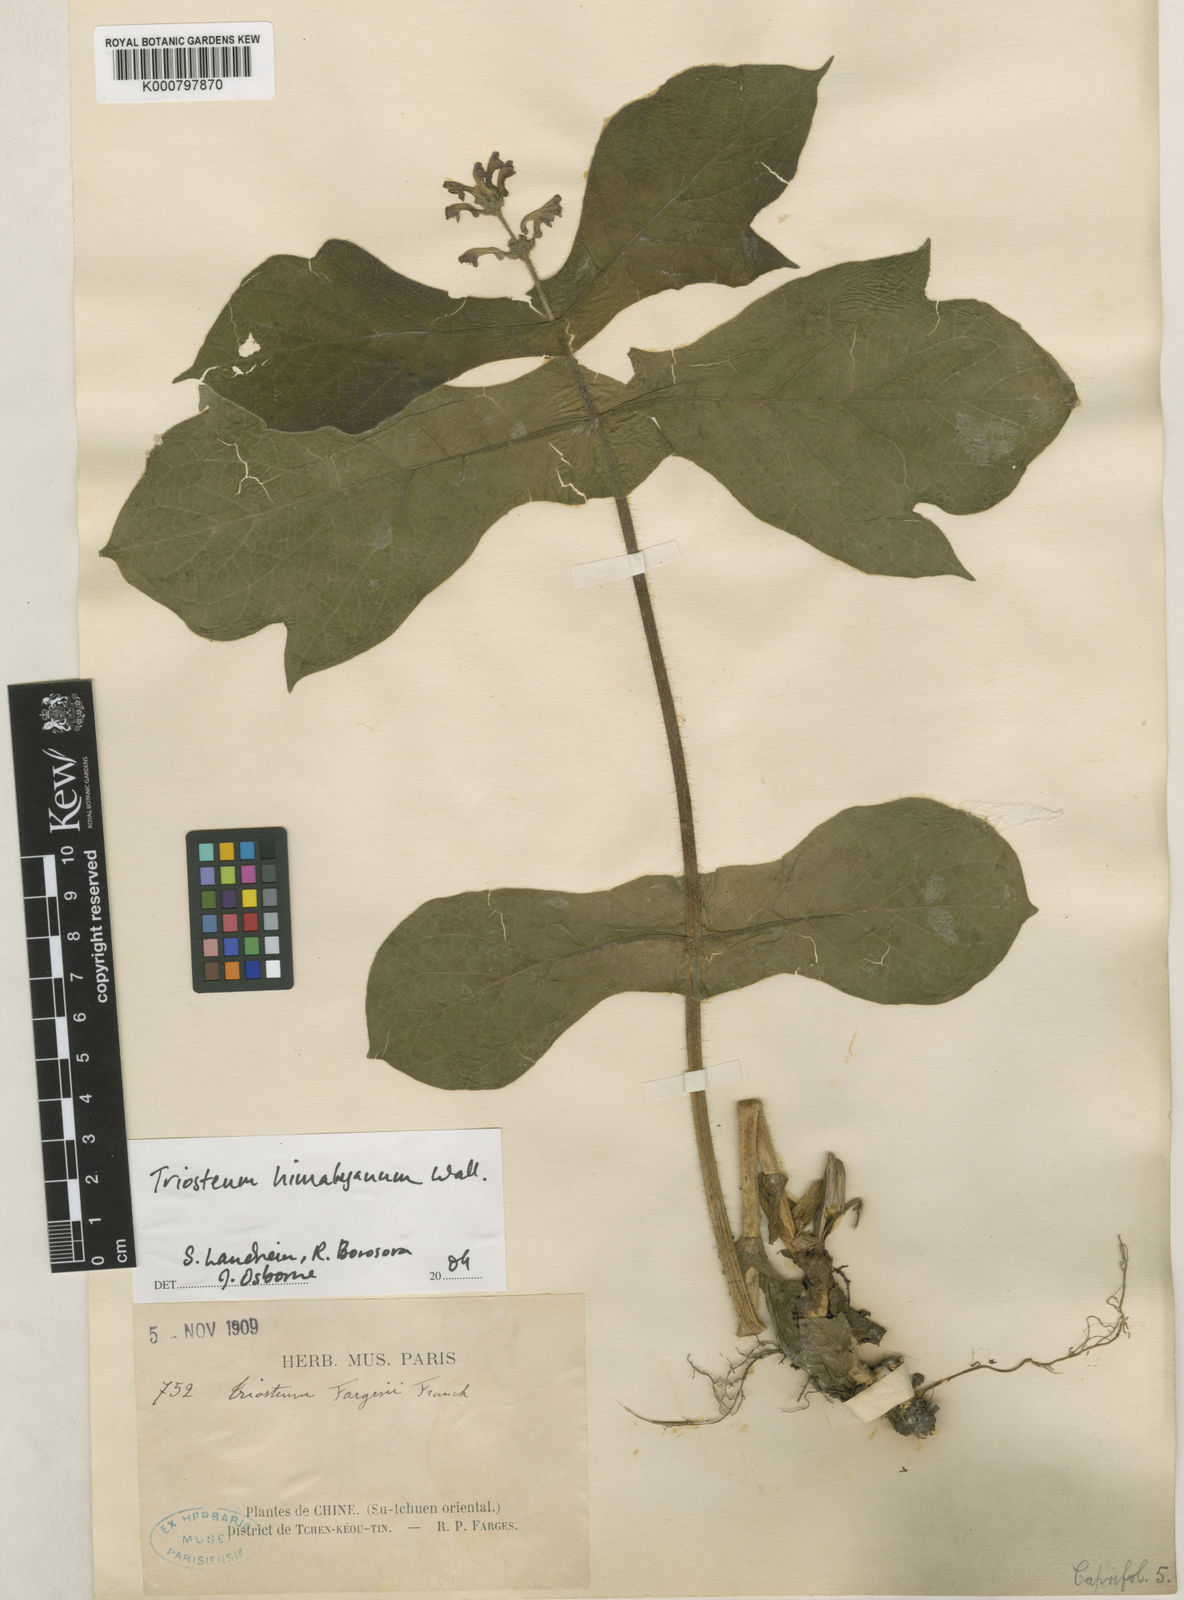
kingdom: Plantae
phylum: Tracheophyta
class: Magnoliopsida
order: Dipsacales
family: Caprifoliaceae
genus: Triosteum
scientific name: Triosteum himalayanum
